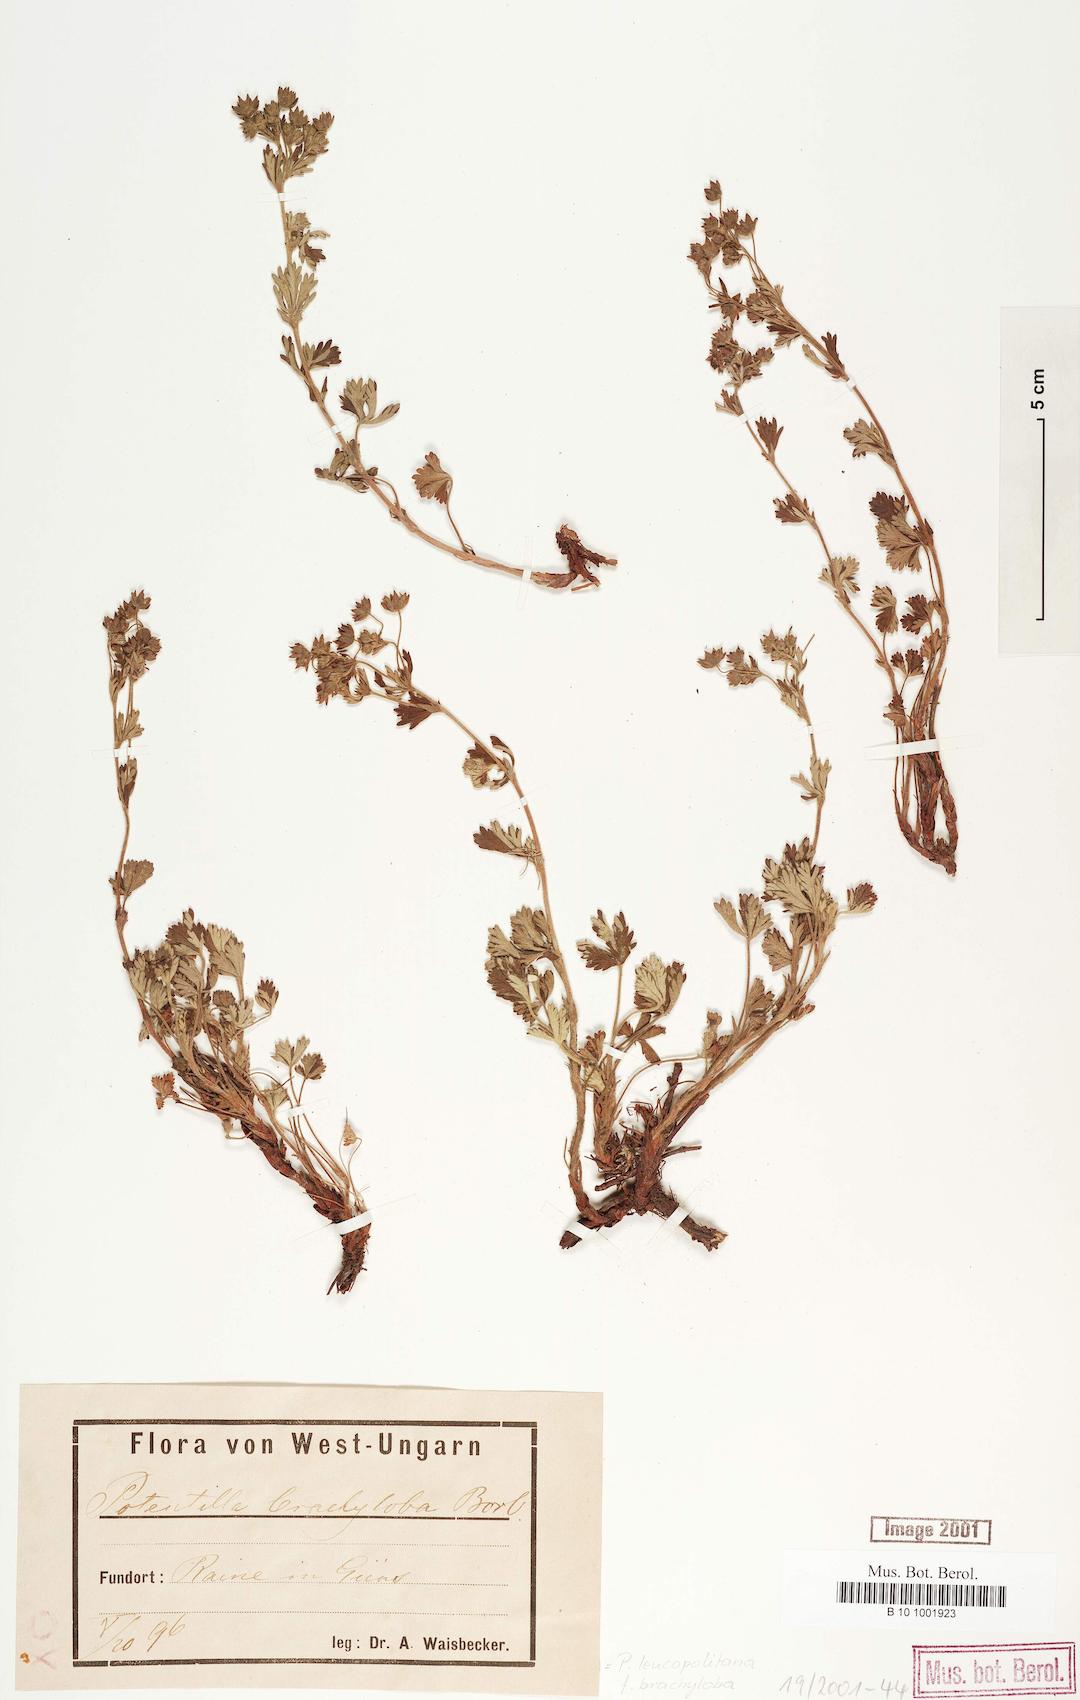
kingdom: Plantae
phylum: Tracheophyta
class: Magnoliopsida
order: Rosales
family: Rosaceae
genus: Potentilla
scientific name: Potentilla brachyloba
